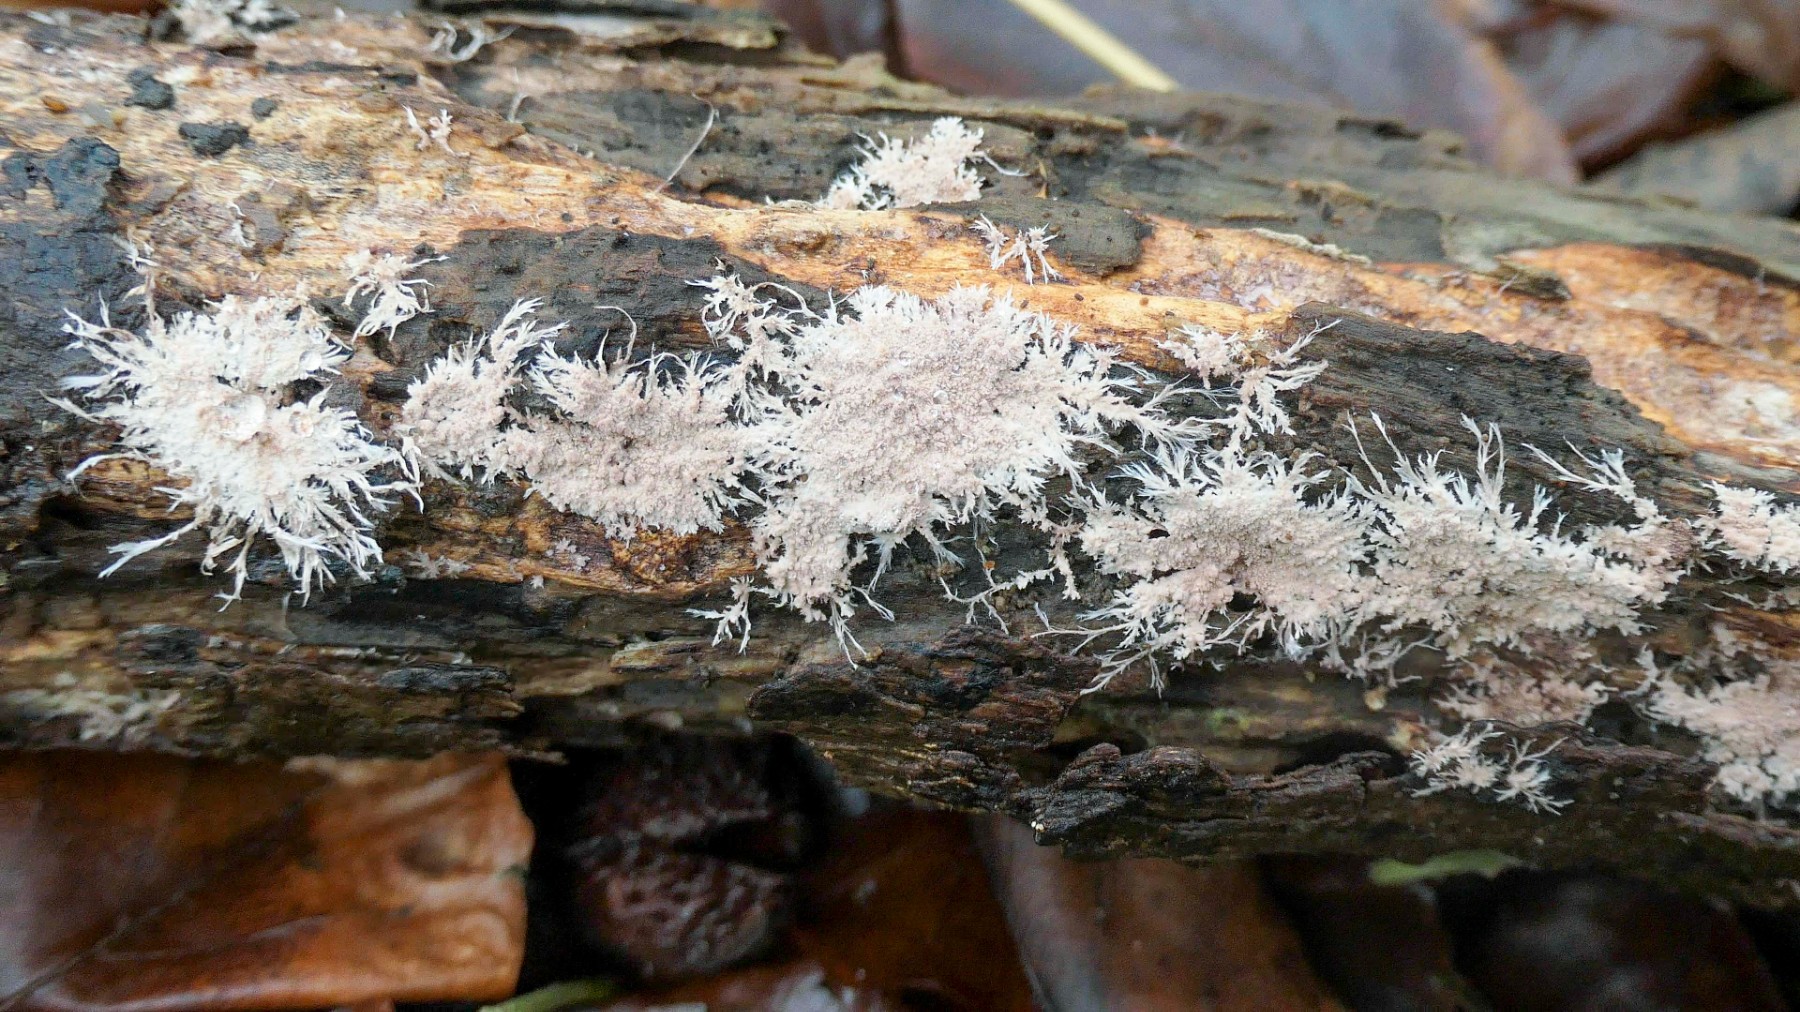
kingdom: Fungi
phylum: Basidiomycota
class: Agaricomycetes
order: Polyporales
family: Steccherinaceae
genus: Steccherinum
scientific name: Steccherinum fimbriatum
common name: trådet skønpig
